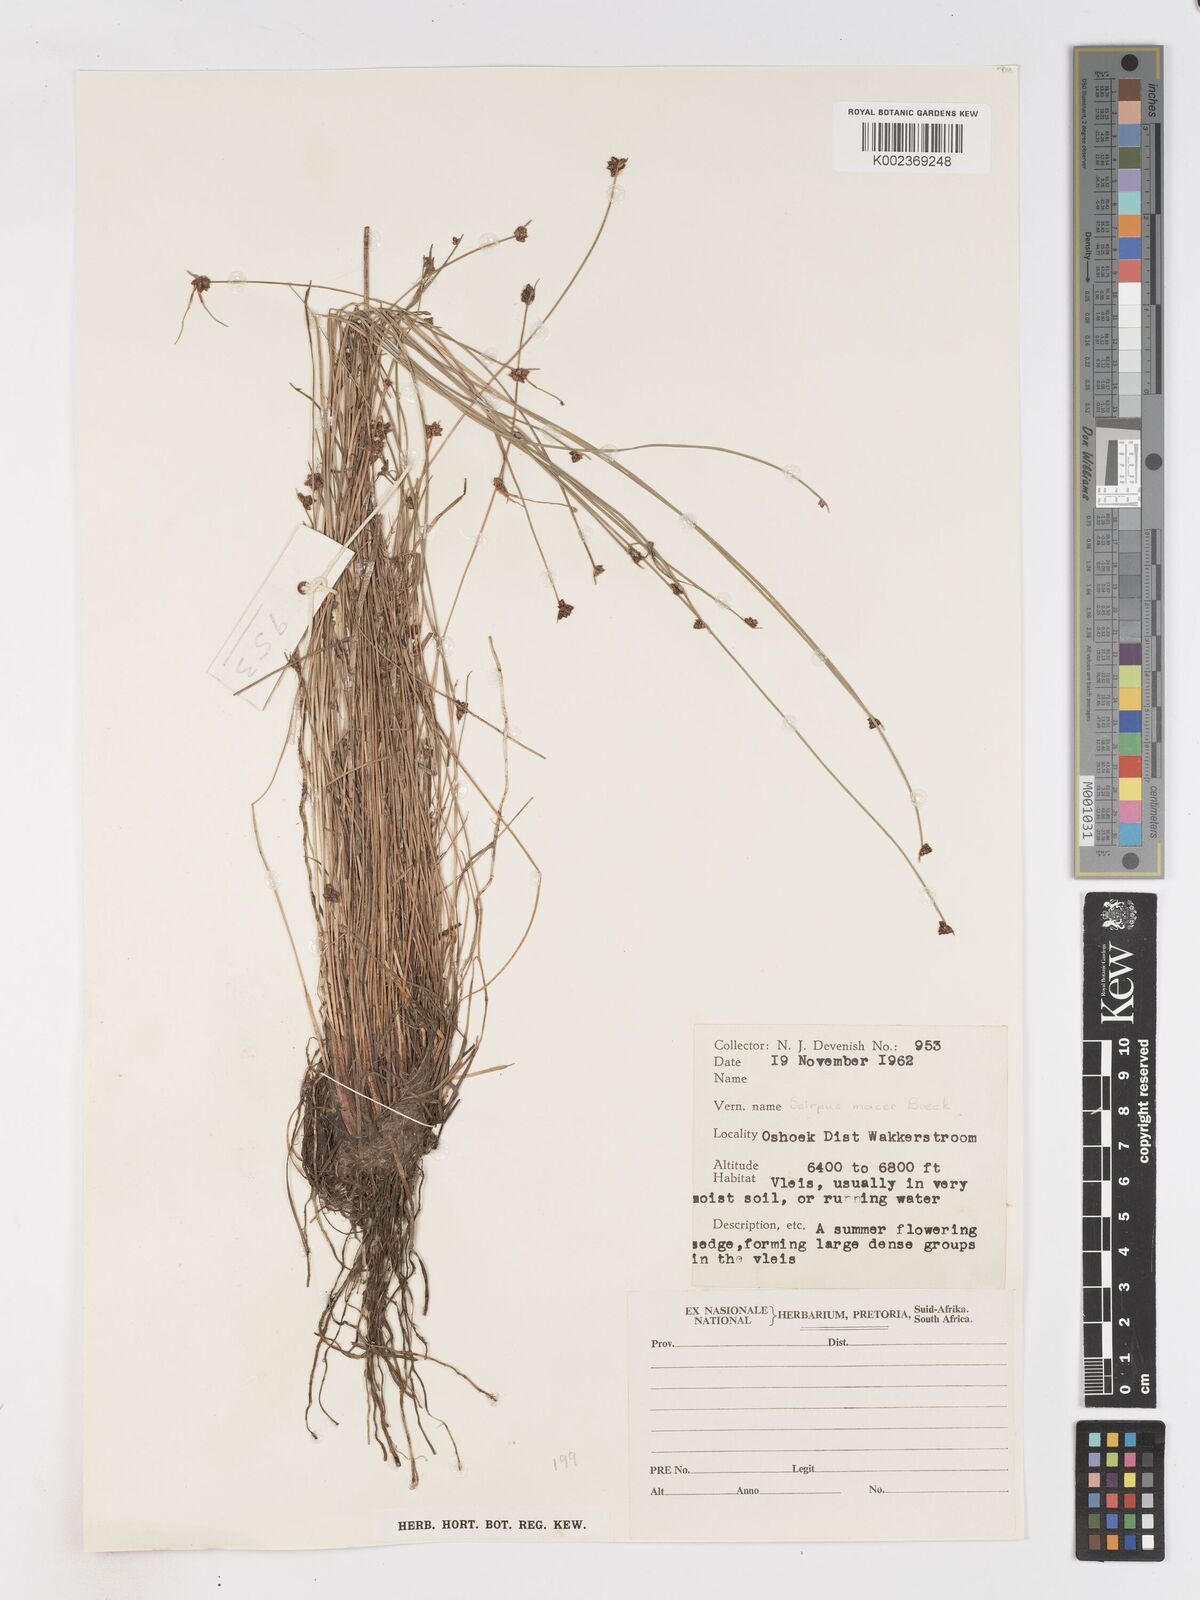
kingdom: Plantae
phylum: Tracheophyta
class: Liliopsida
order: Poales
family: Cyperaceae
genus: Isolepis
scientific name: Isolepis costata
